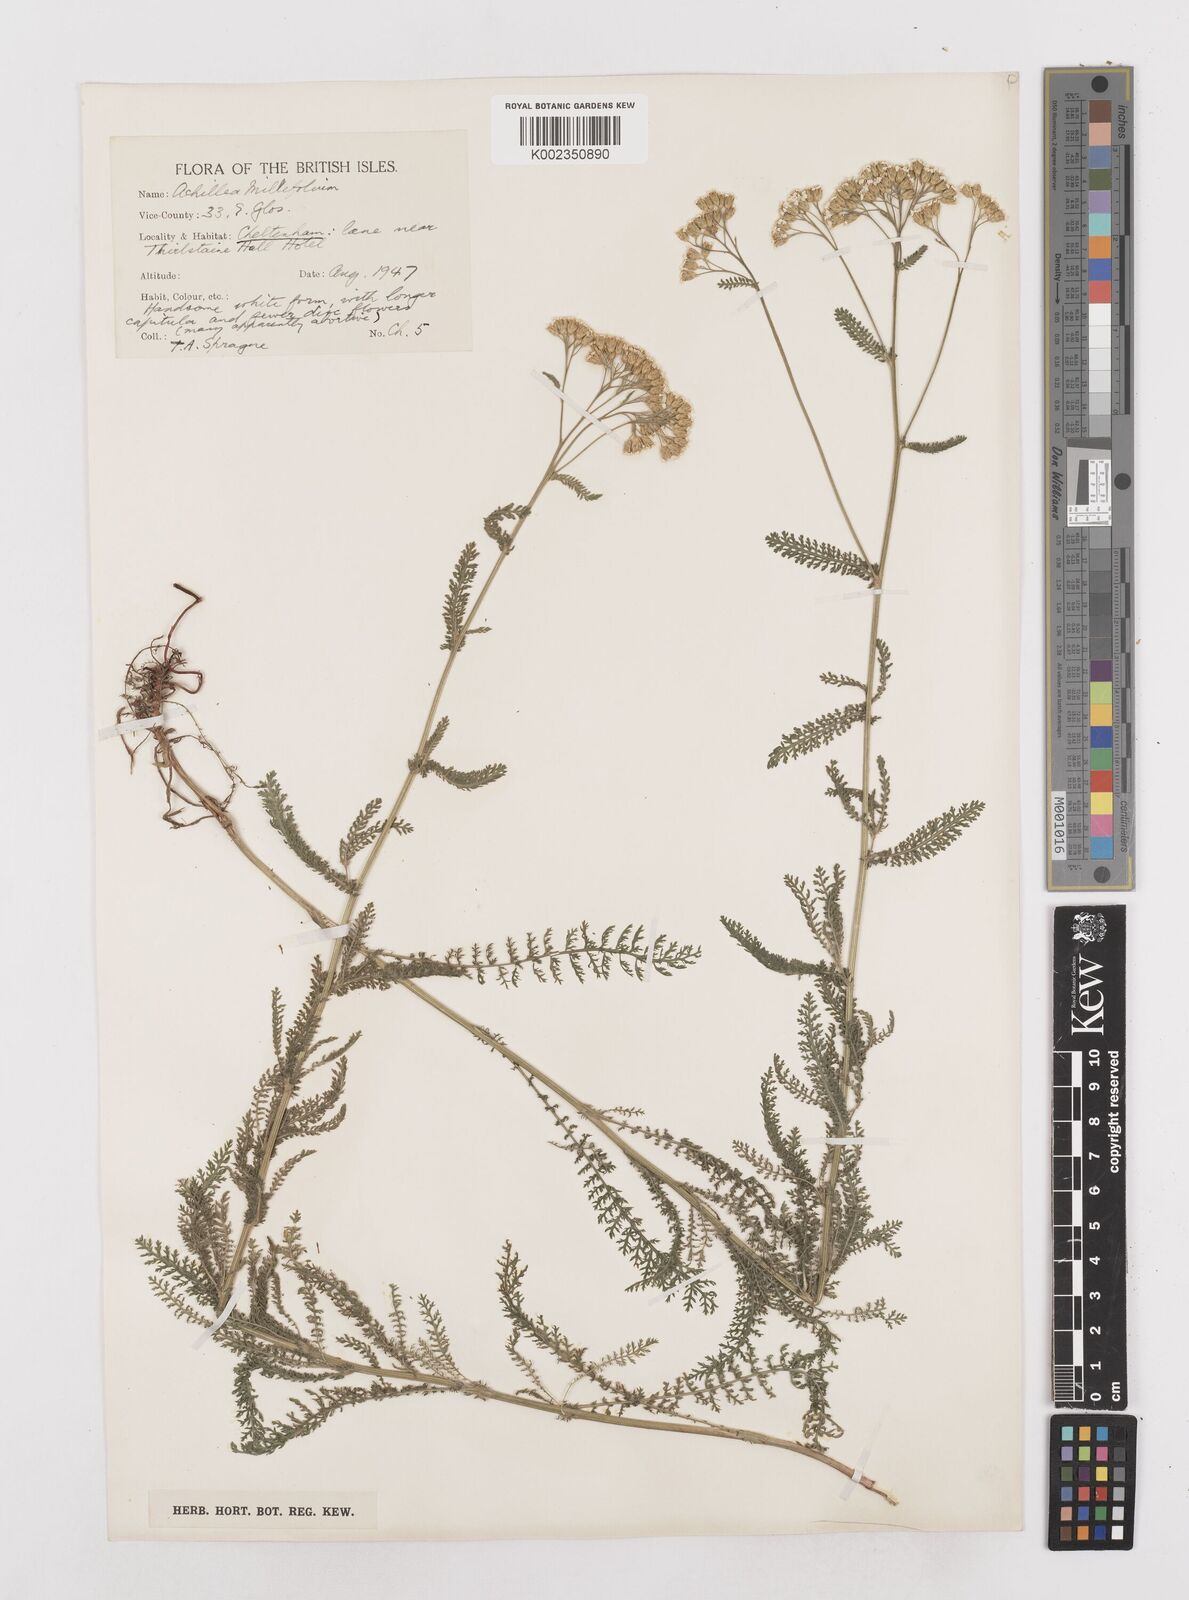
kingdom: Plantae
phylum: Tracheophyta
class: Magnoliopsida
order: Asterales
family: Asteraceae
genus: Achillea
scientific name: Achillea millefolium
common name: Yarrow
